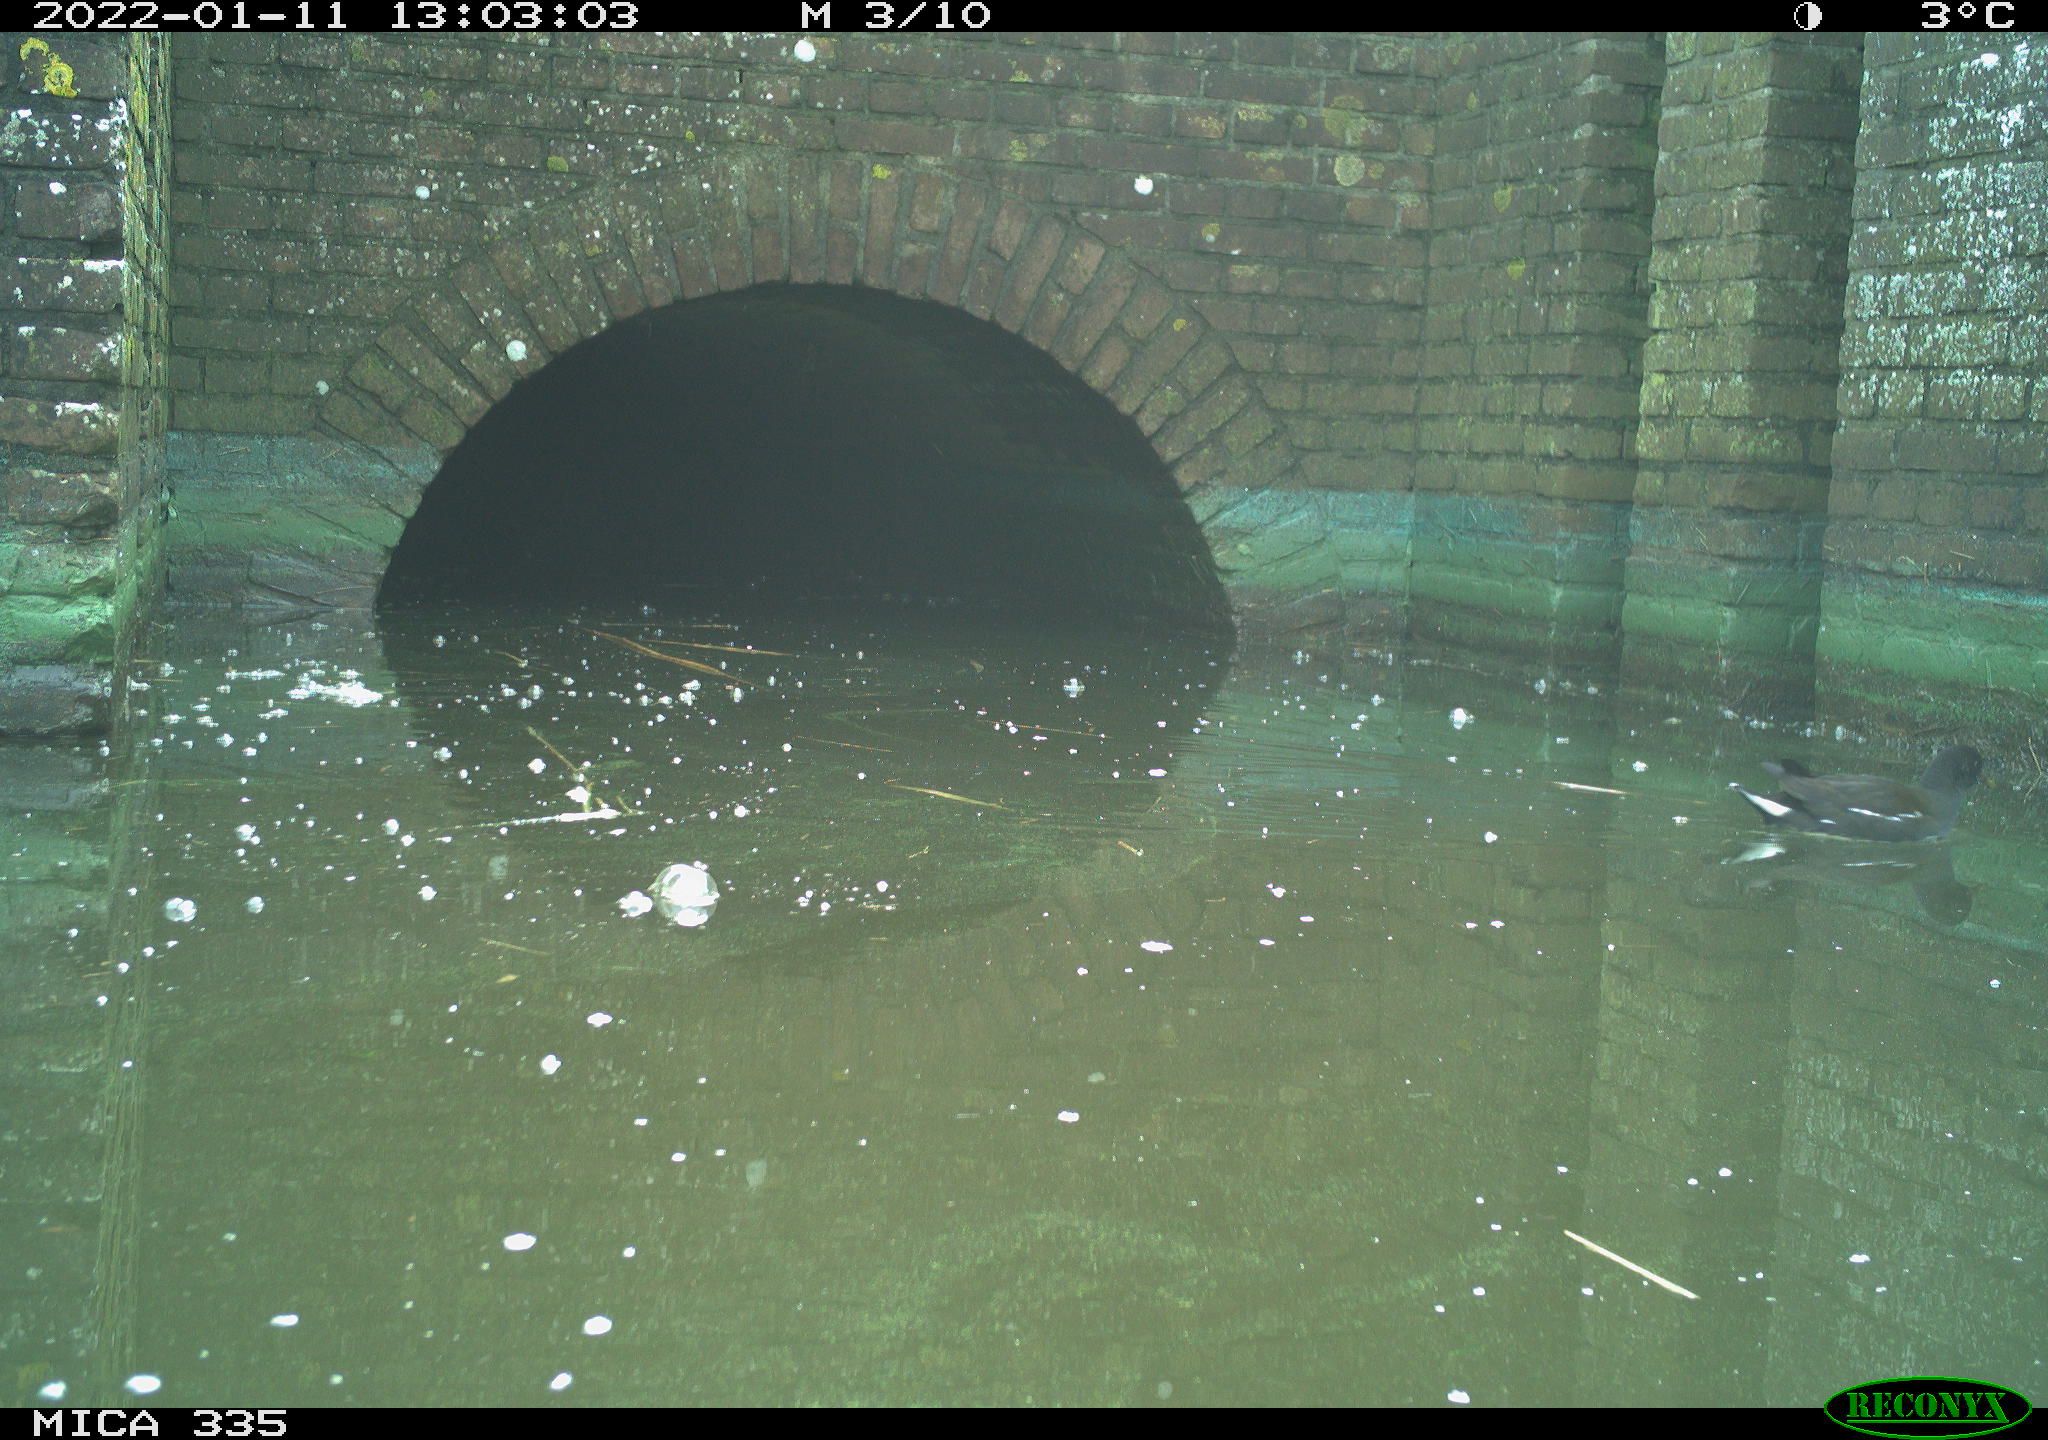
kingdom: Animalia
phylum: Chordata
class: Aves
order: Gruiformes
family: Rallidae
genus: Gallinula
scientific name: Gallinula chloropus
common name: Common moorhen
